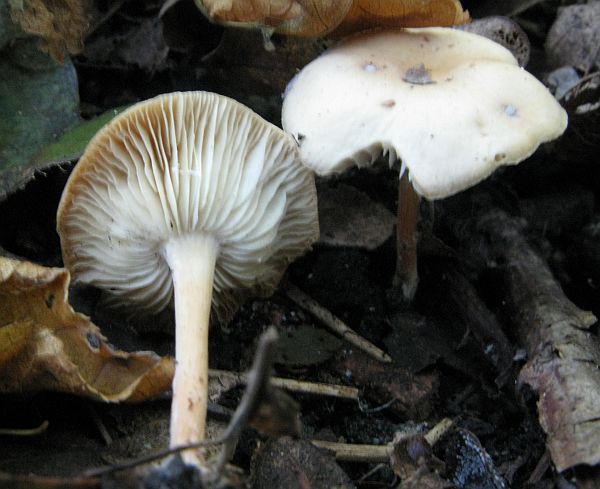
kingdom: Fungi
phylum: Basidiomycota
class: Agaricomycetes
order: Agaricales
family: Omphalotaceae
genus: Gymnopus
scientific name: Gymnopus dryophilus
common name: løv-fladhat
